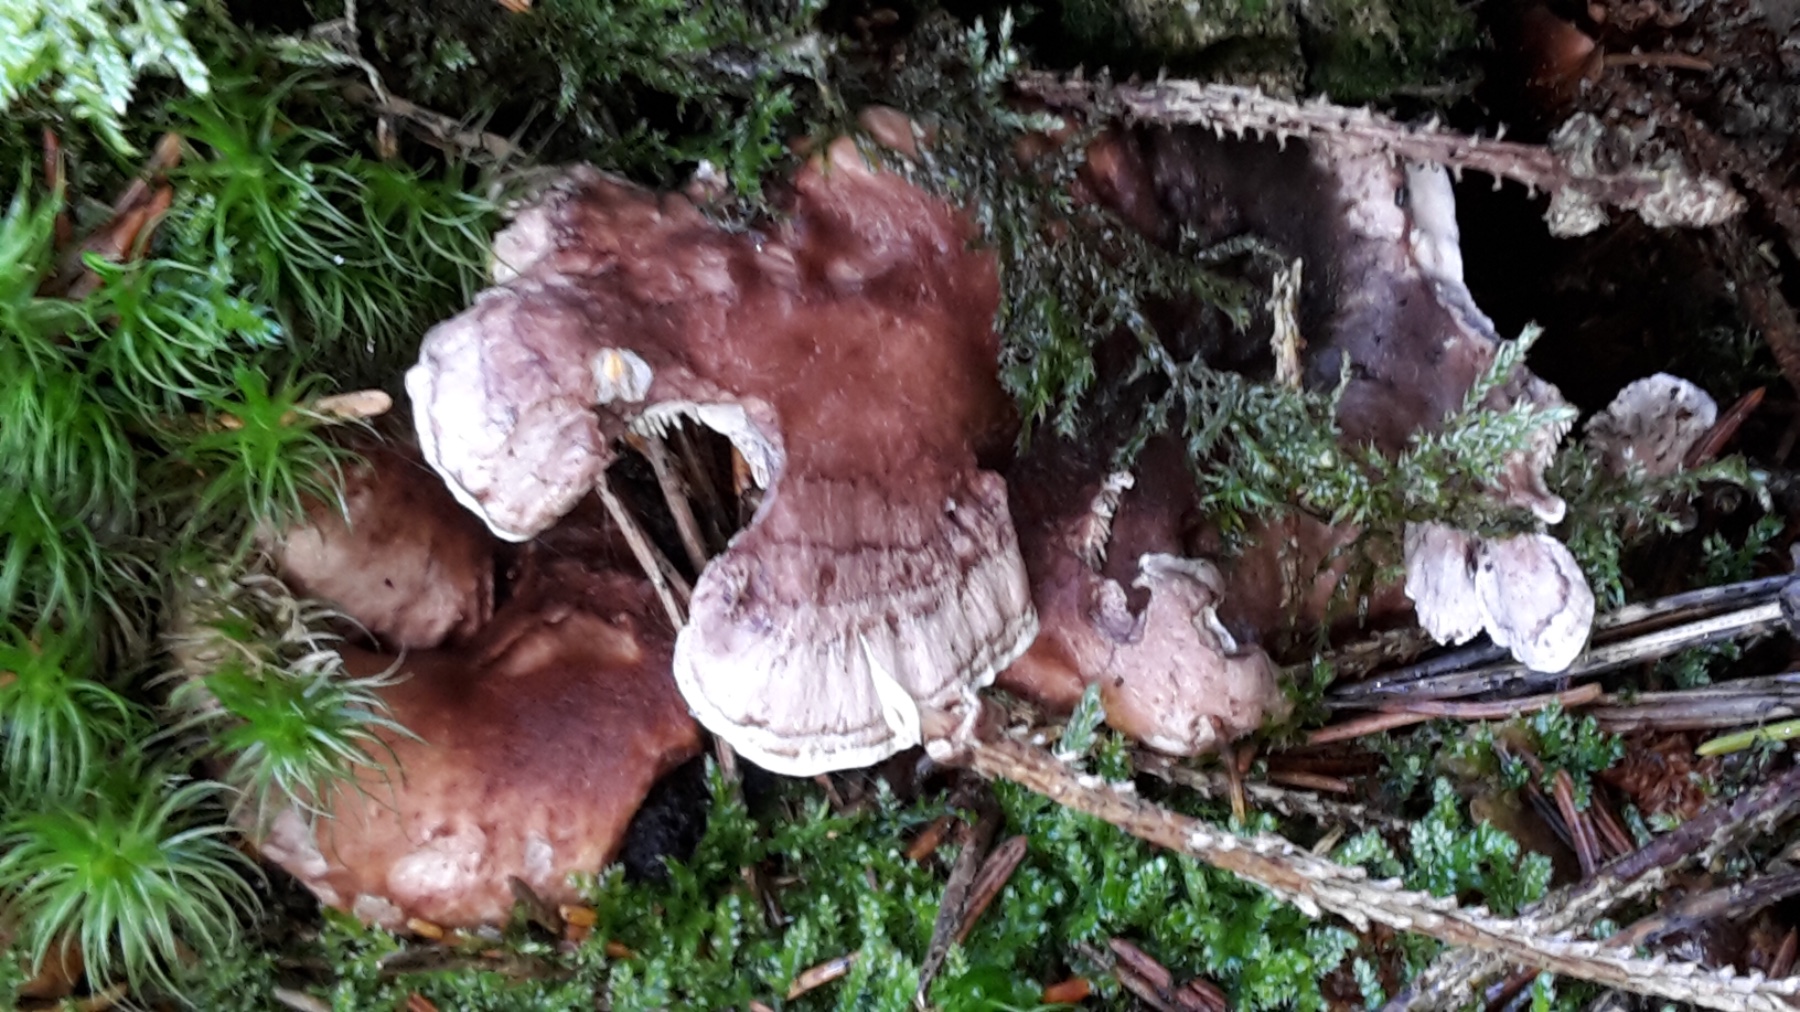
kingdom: Fungi
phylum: Basidiomycota
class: Agaricomycetes
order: Thelephorales
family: Thelephoraceae
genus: Phellodon
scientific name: Phellodon violascens
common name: violetbrun duftpigsvamp
